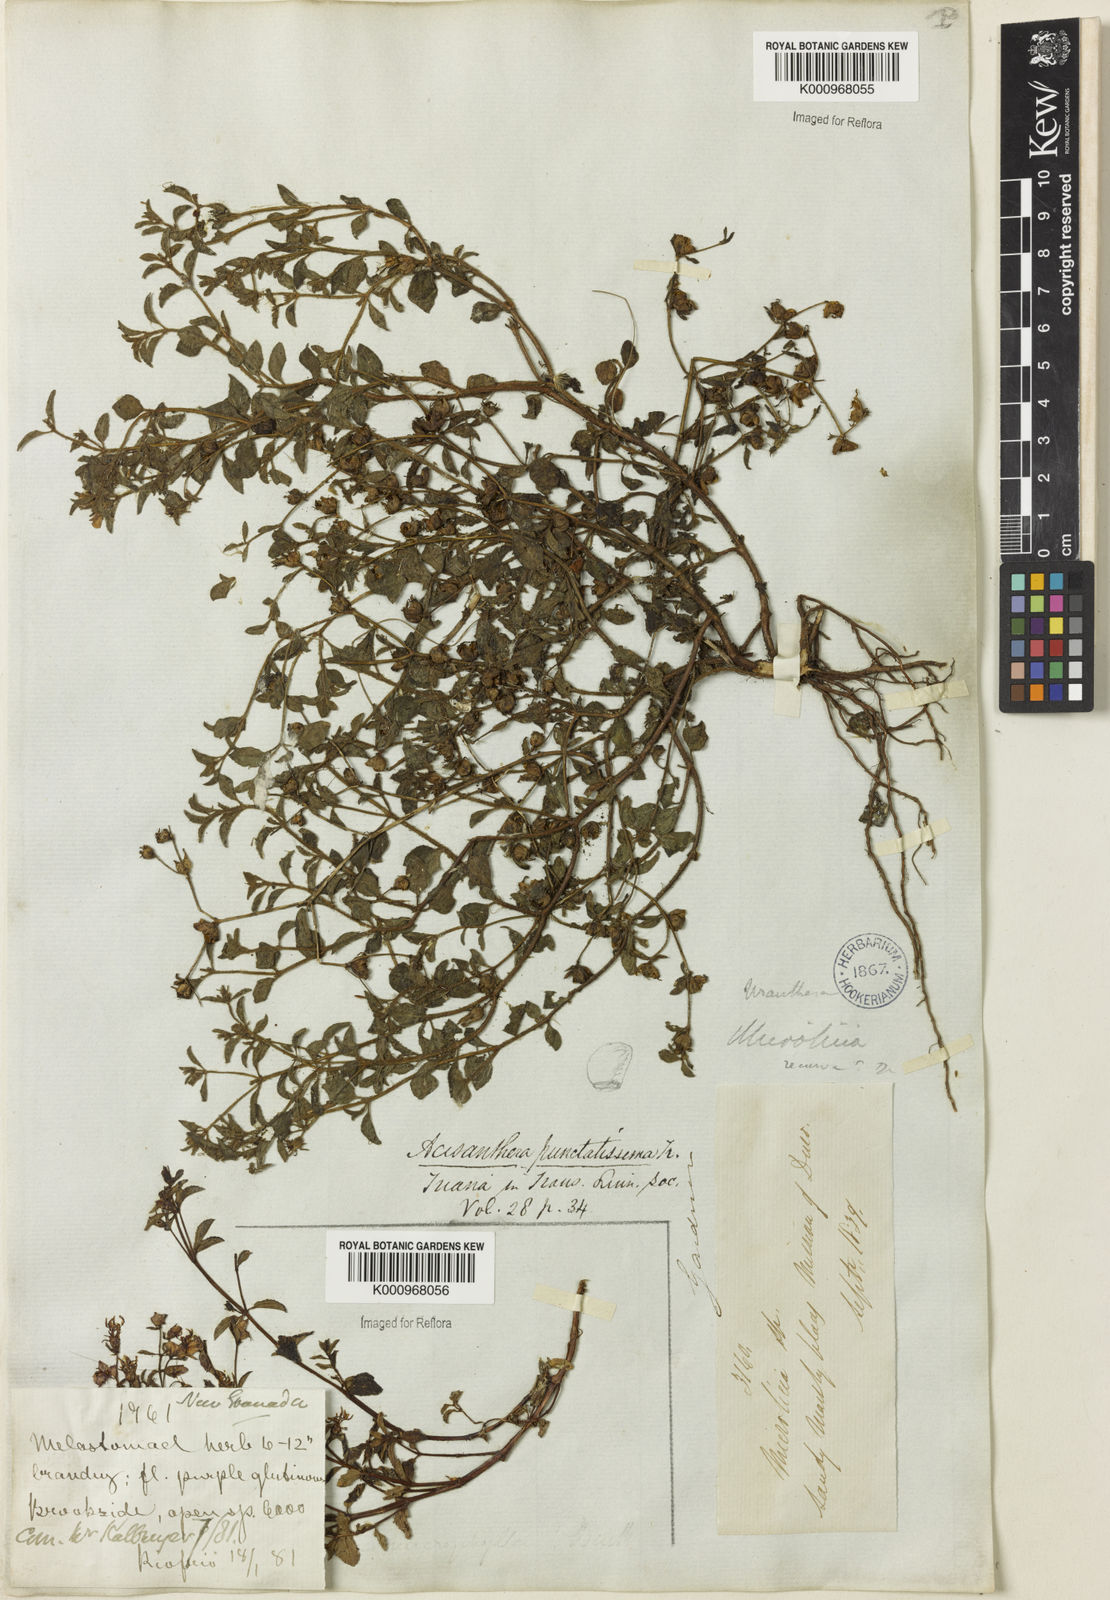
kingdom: Plantae
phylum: Tracheophyta
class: Magnoliopsida
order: Myrtales
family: Melastomataceae
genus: Acisanthera
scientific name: Acisanthera
